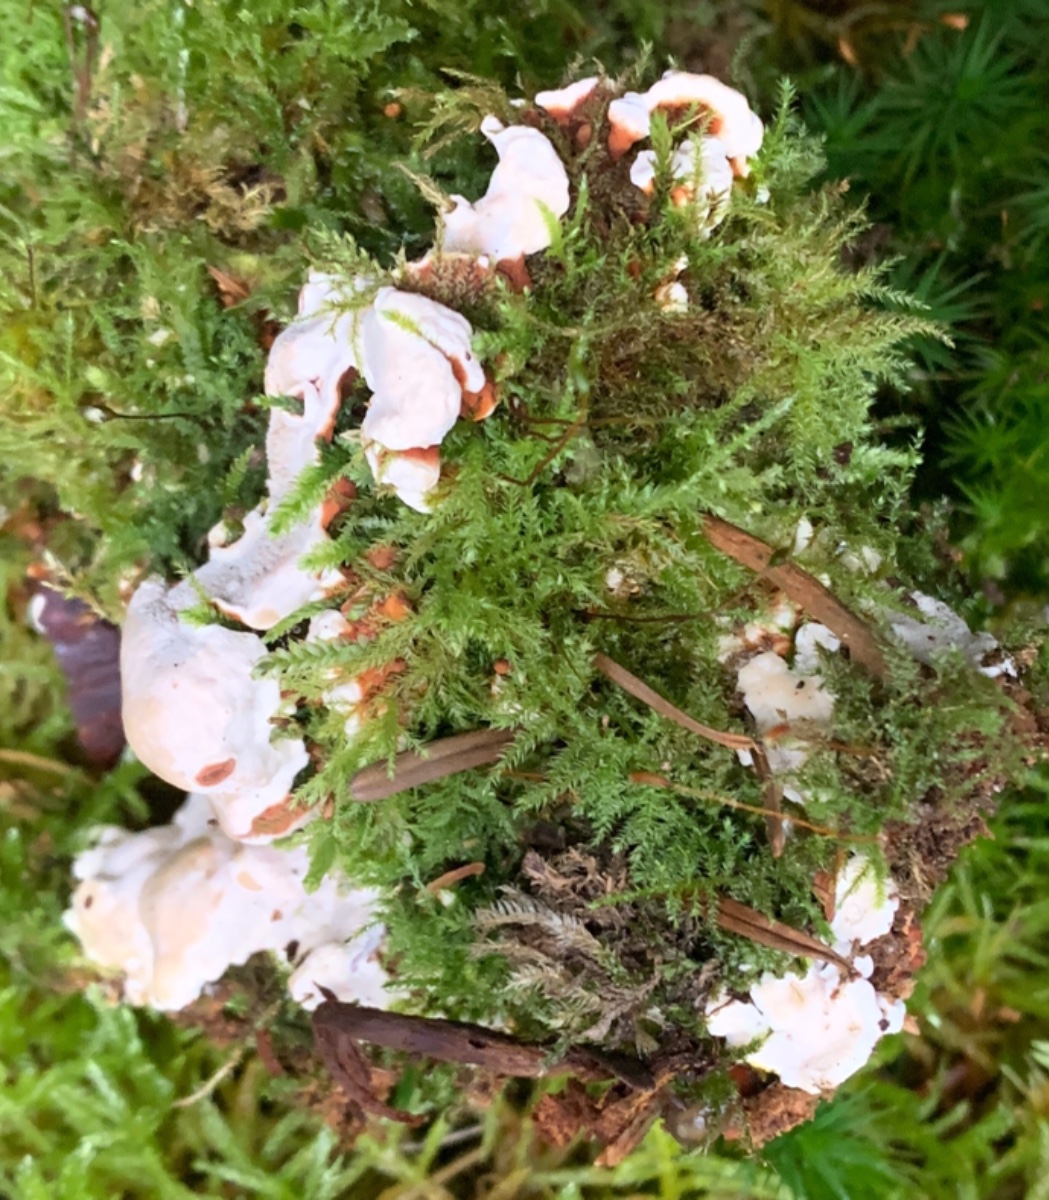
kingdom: Fungi
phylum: Basidiomycota
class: Agaricomycetes
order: Russulales
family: Bondarzewiaceae
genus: Heterobasidion
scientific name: Heterobasidion annosum
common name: almindelig rodfordærver
